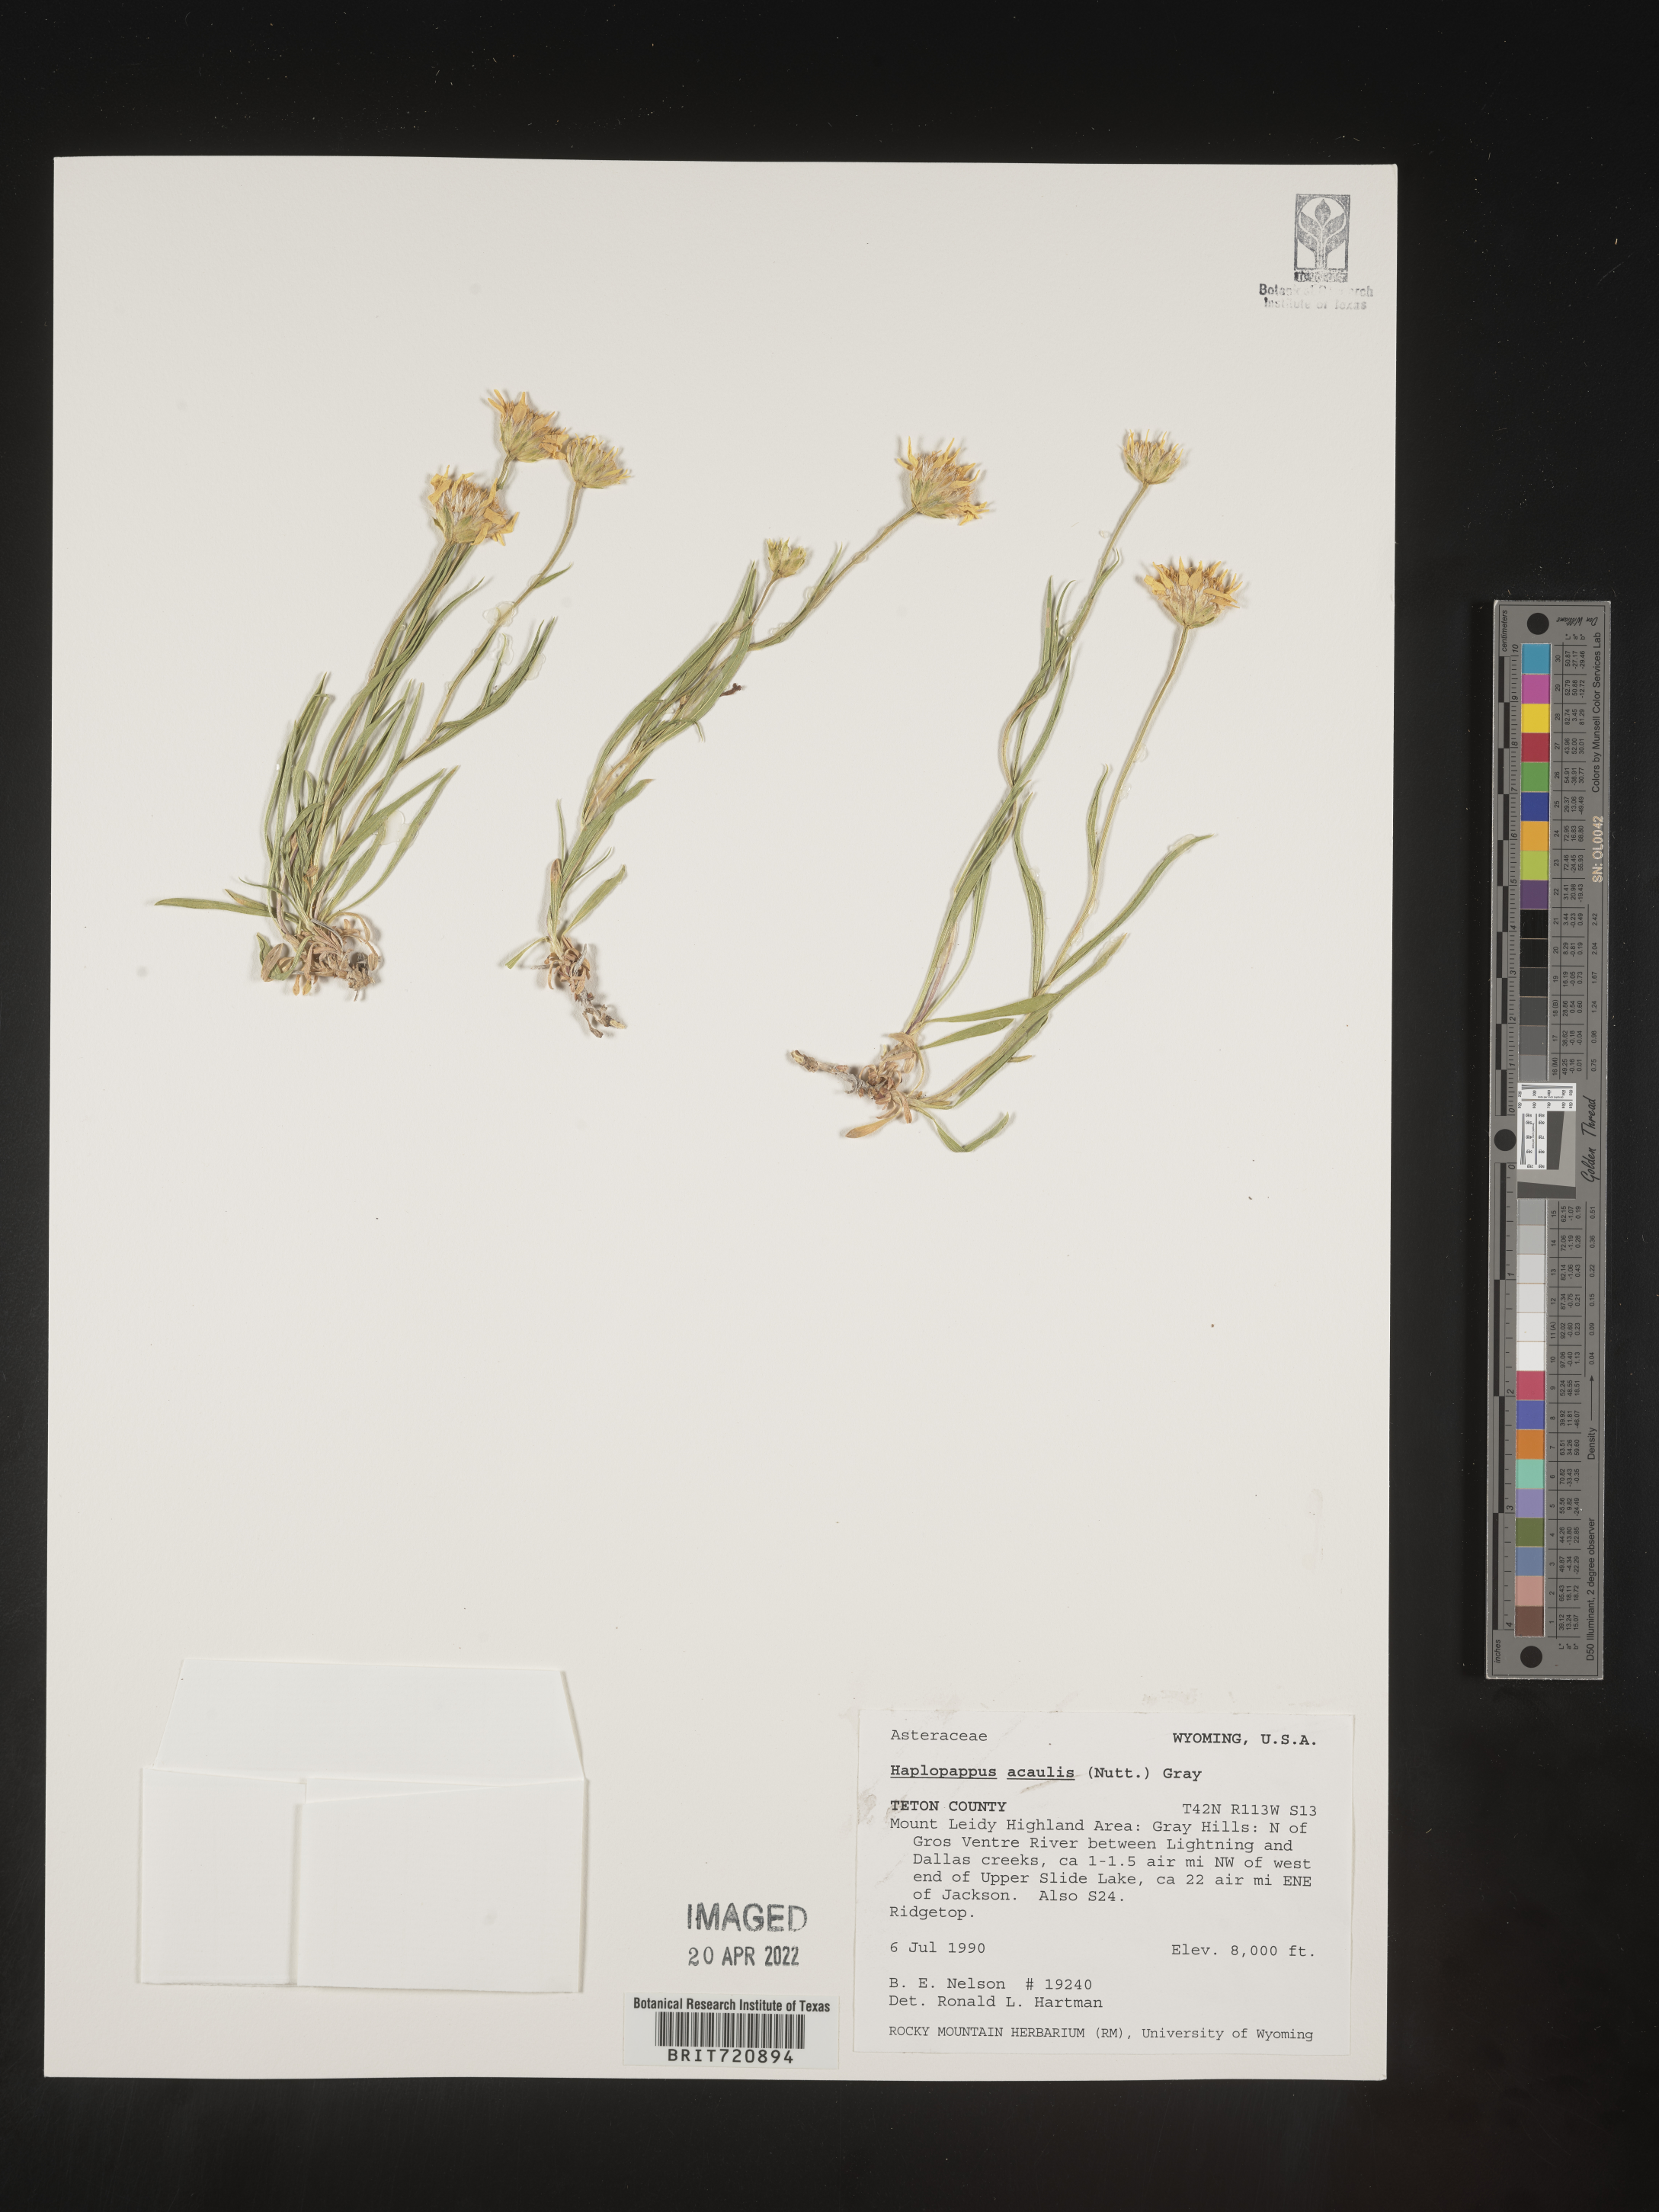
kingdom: Plantae
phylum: Tracheophyta
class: Magnoliopsida
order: Asterales
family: Asteraceae
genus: Haplopappus
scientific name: Haplopappus
